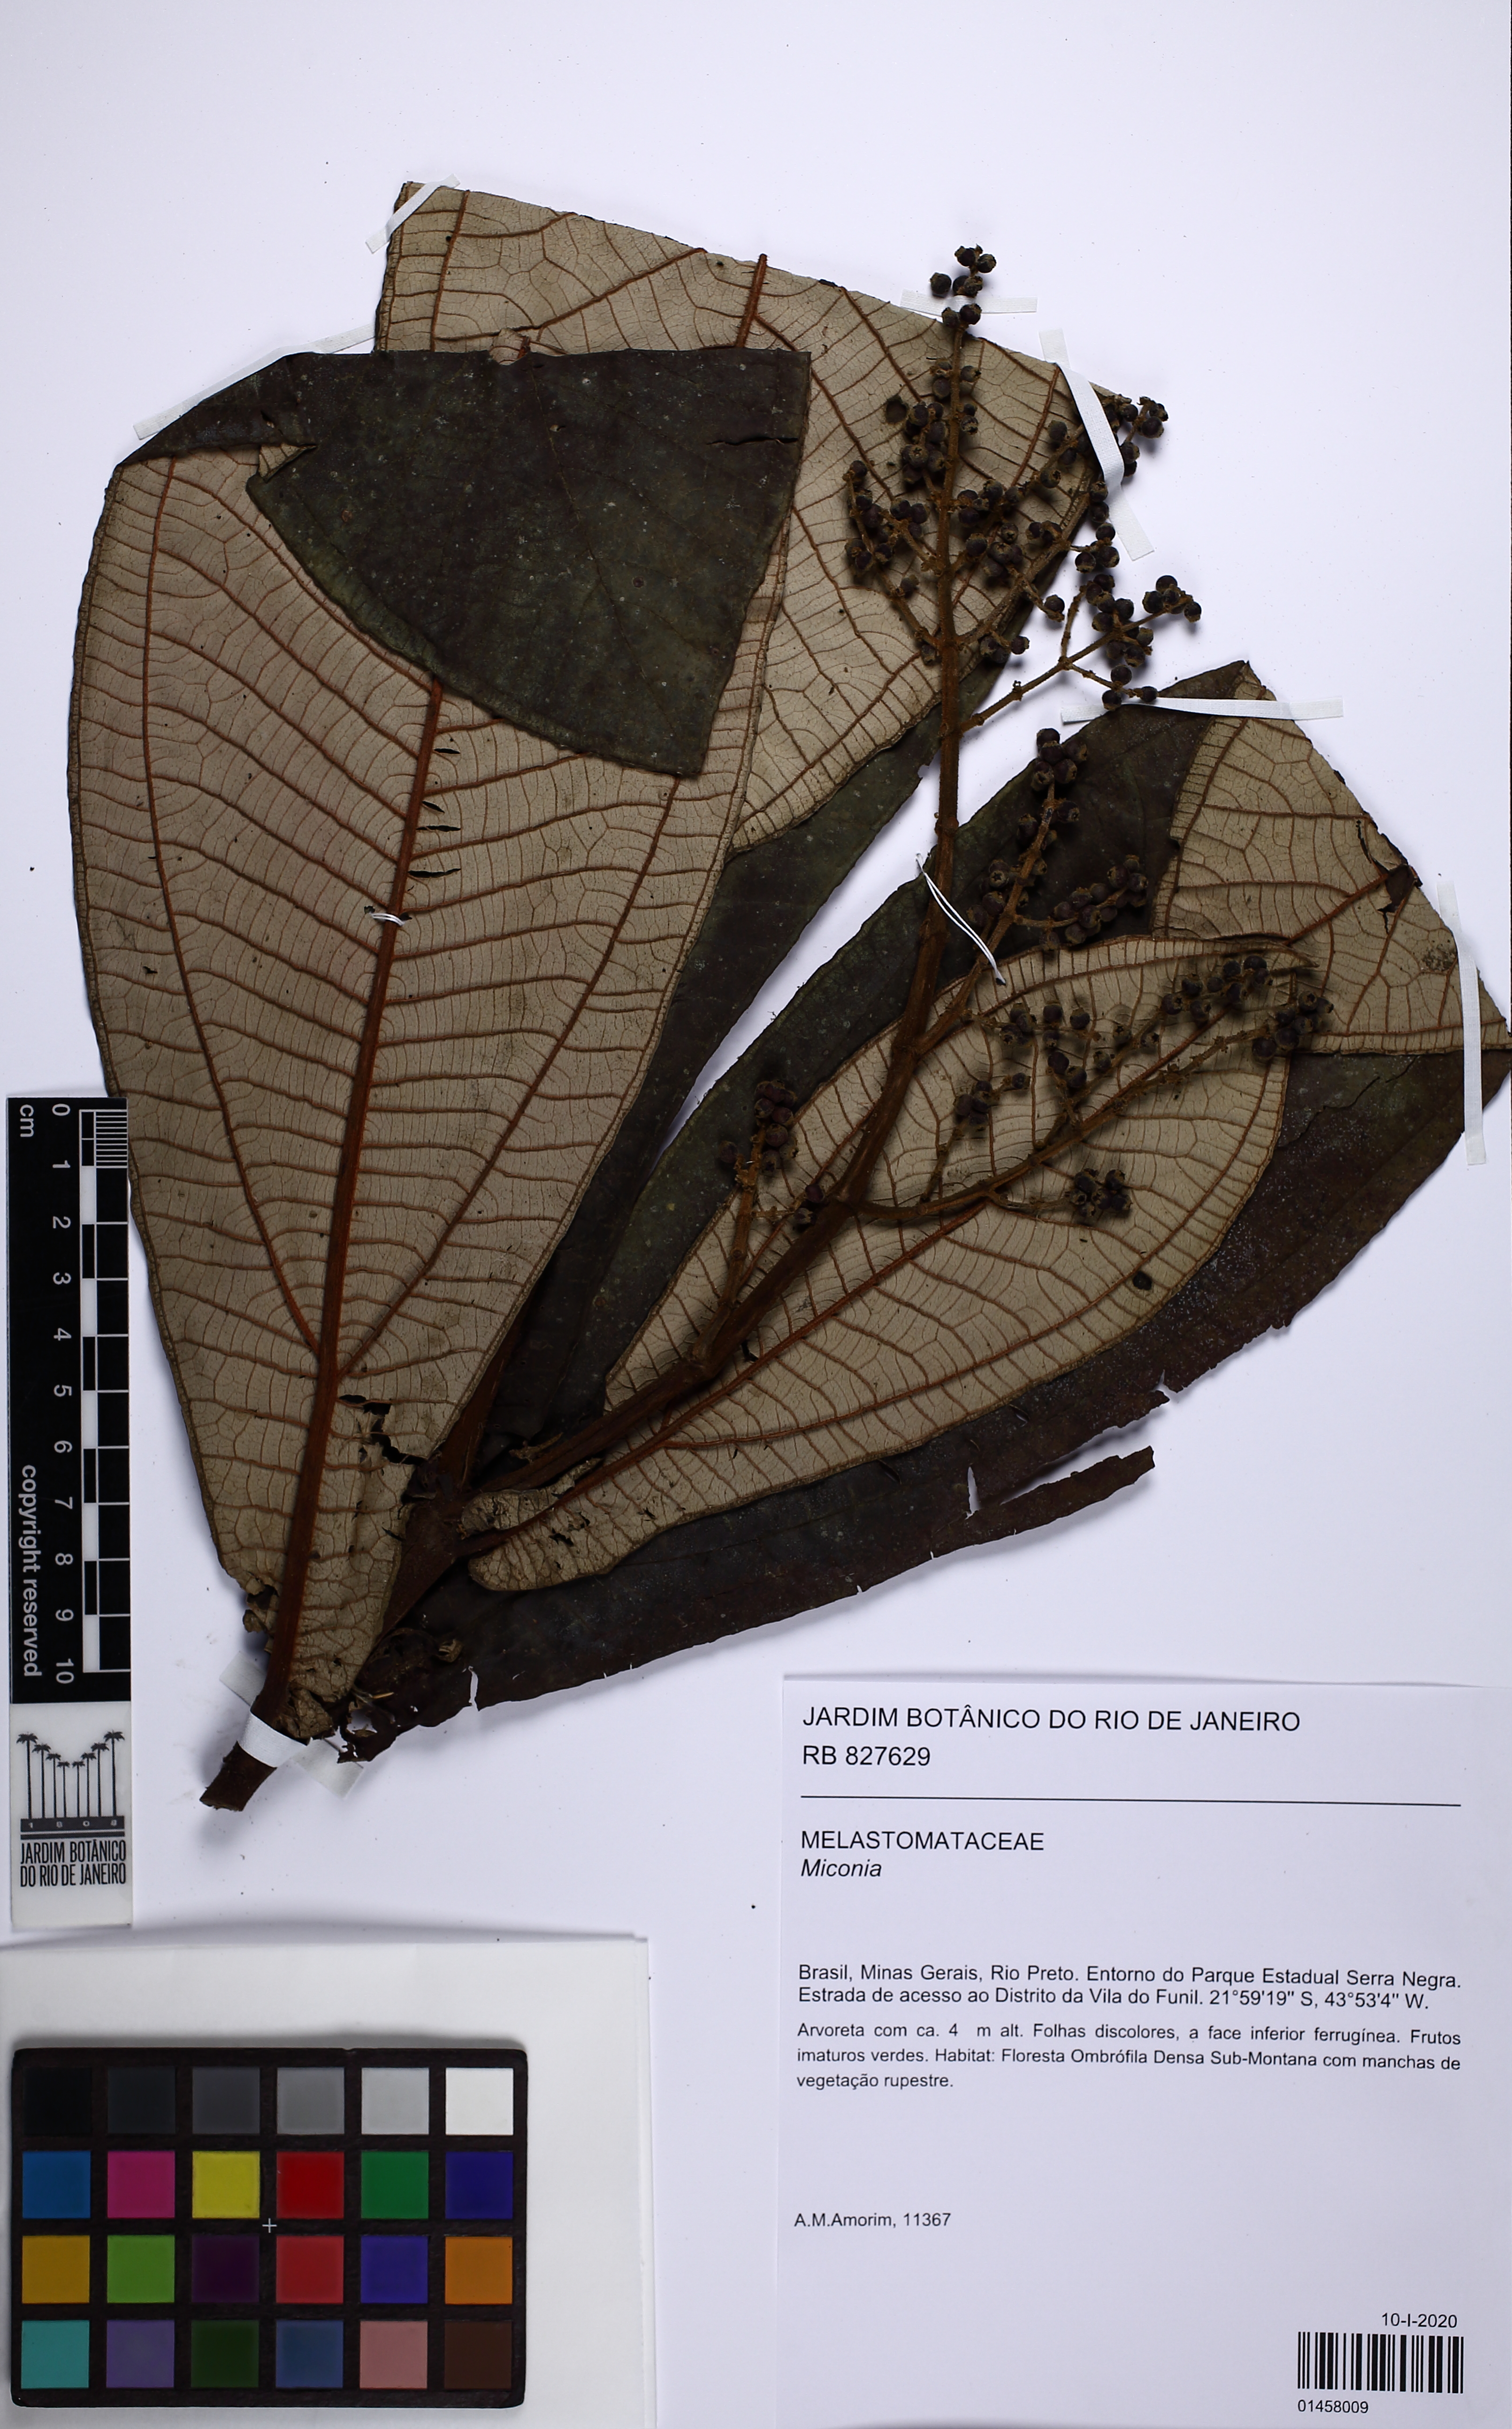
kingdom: Plantae
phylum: Tracheophyta
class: Magnoliopsida
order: Myrtales
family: Melastomataceae
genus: Miconia
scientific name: Miconia
